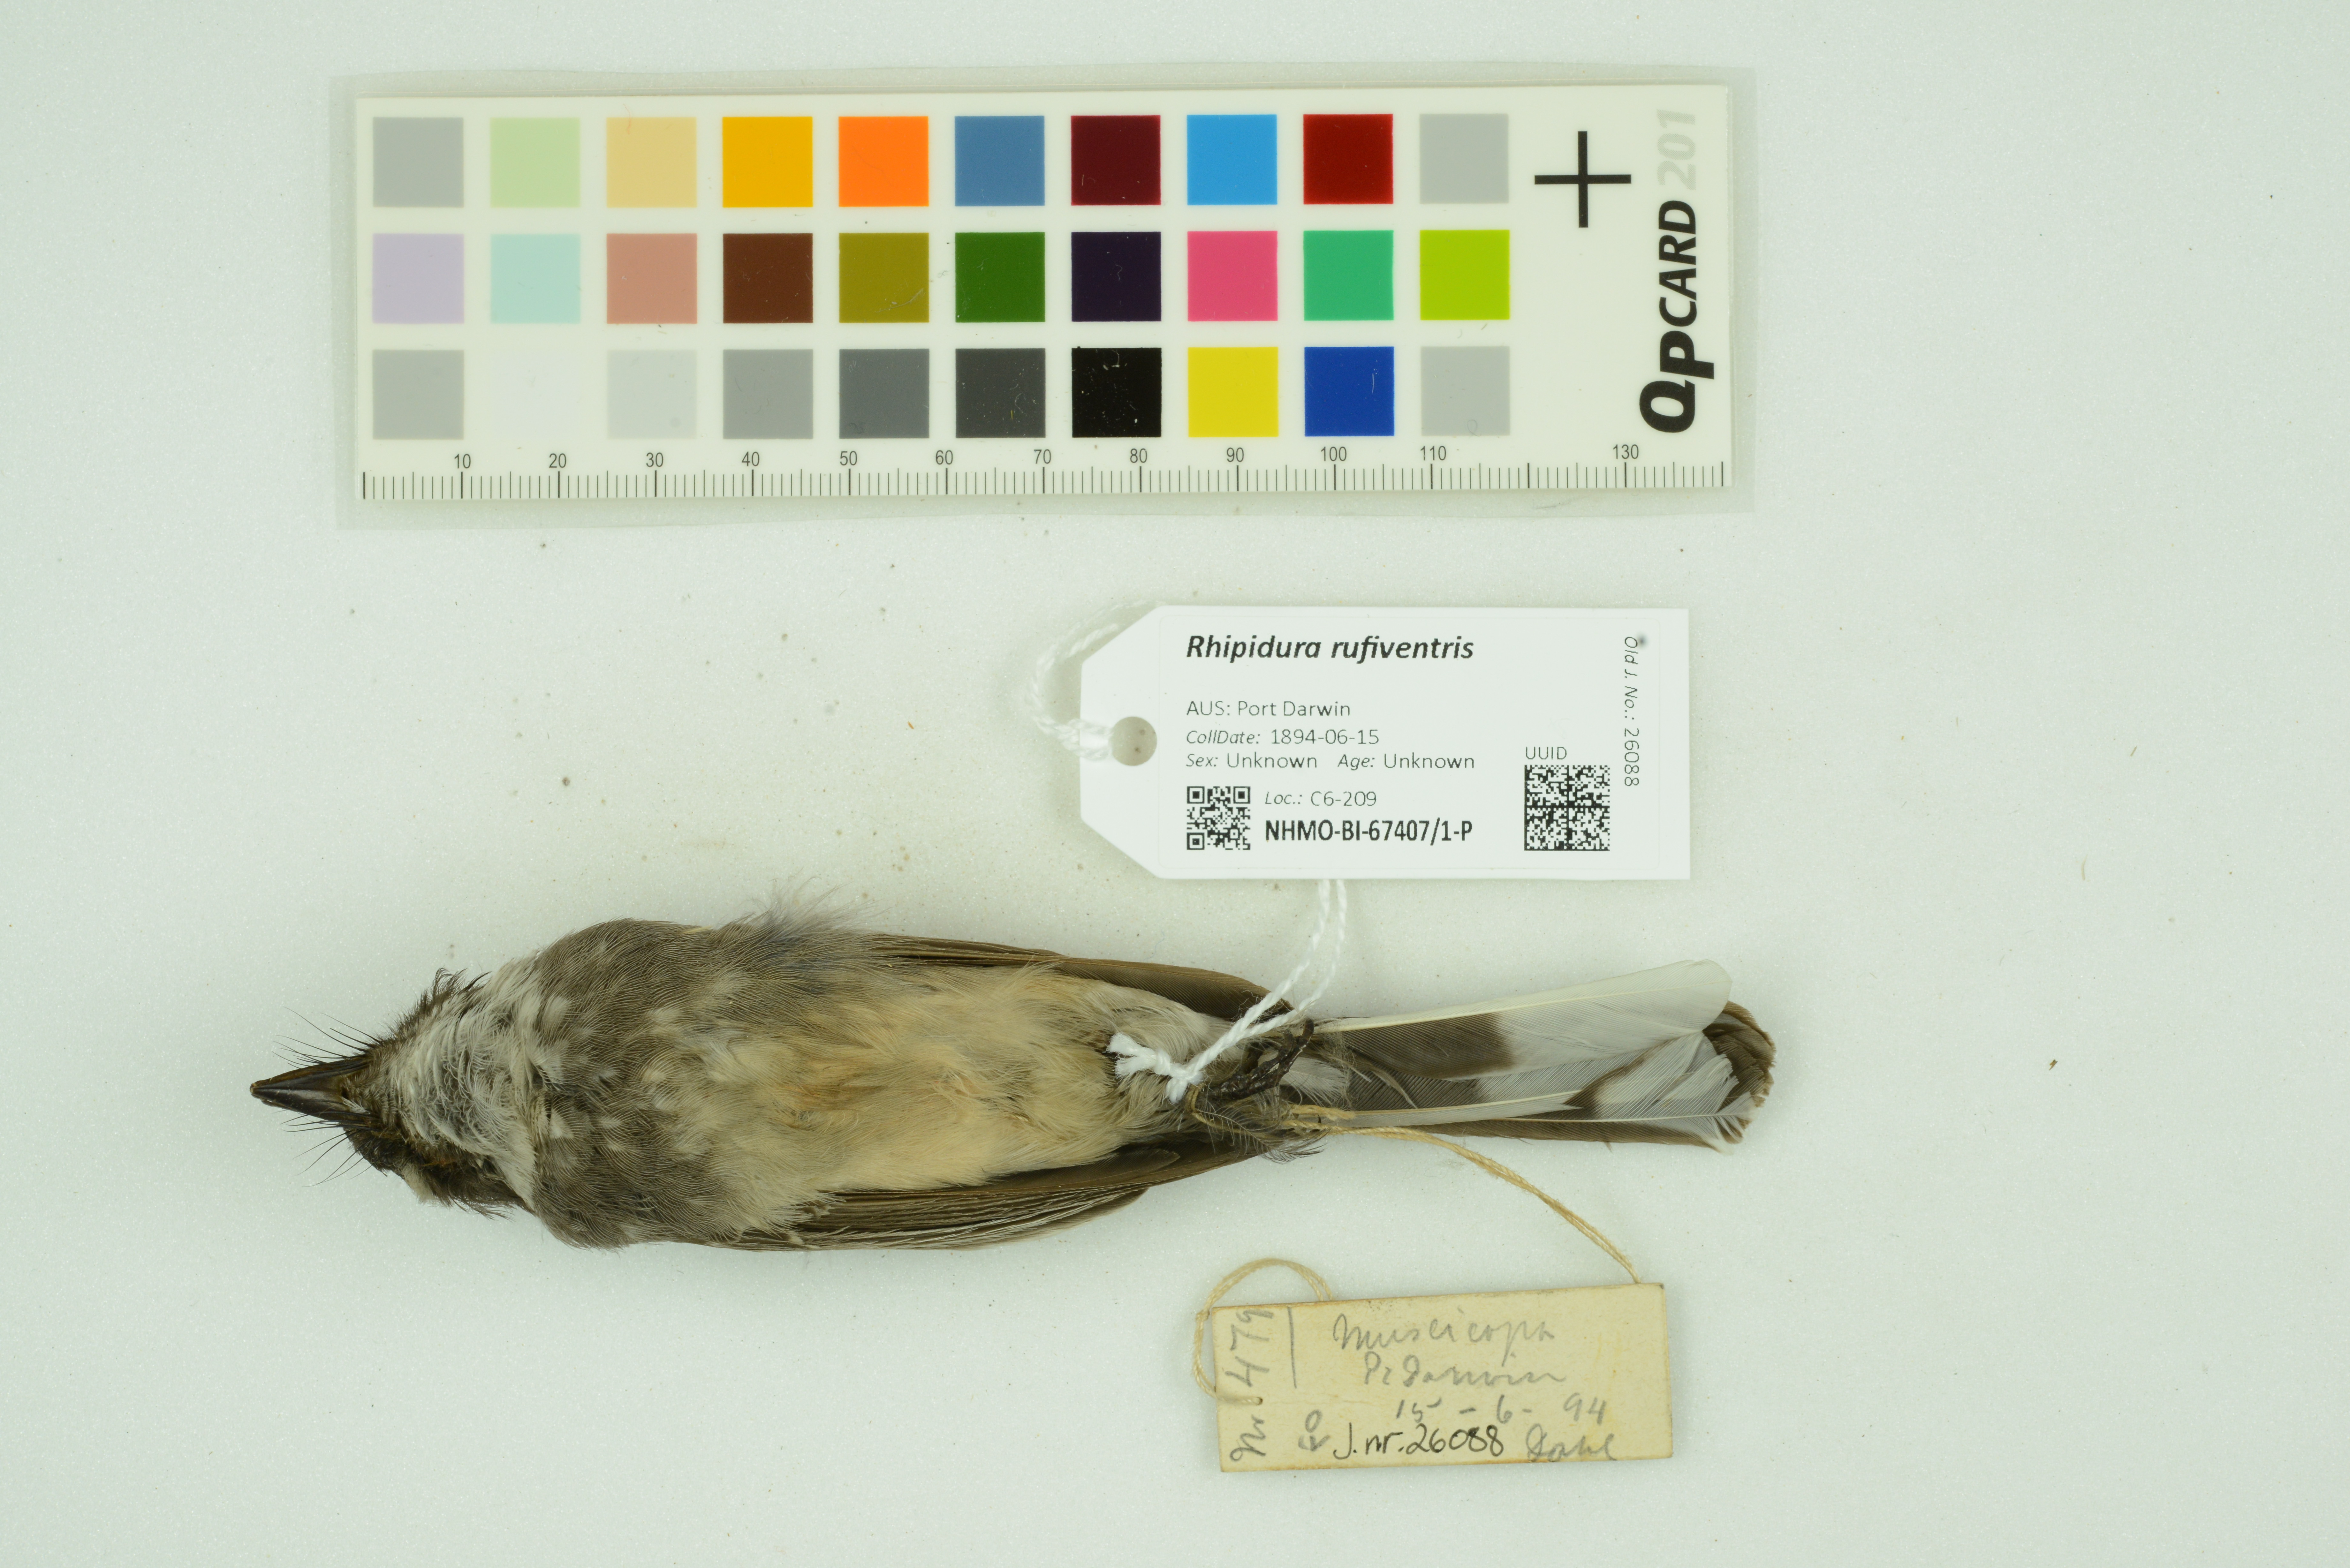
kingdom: Animalia
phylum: Chordata
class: Aves
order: Passeriformes
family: Rhipiduridae
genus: Rhipidura
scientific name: Rhipidura rufiventris
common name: Northern fantail
